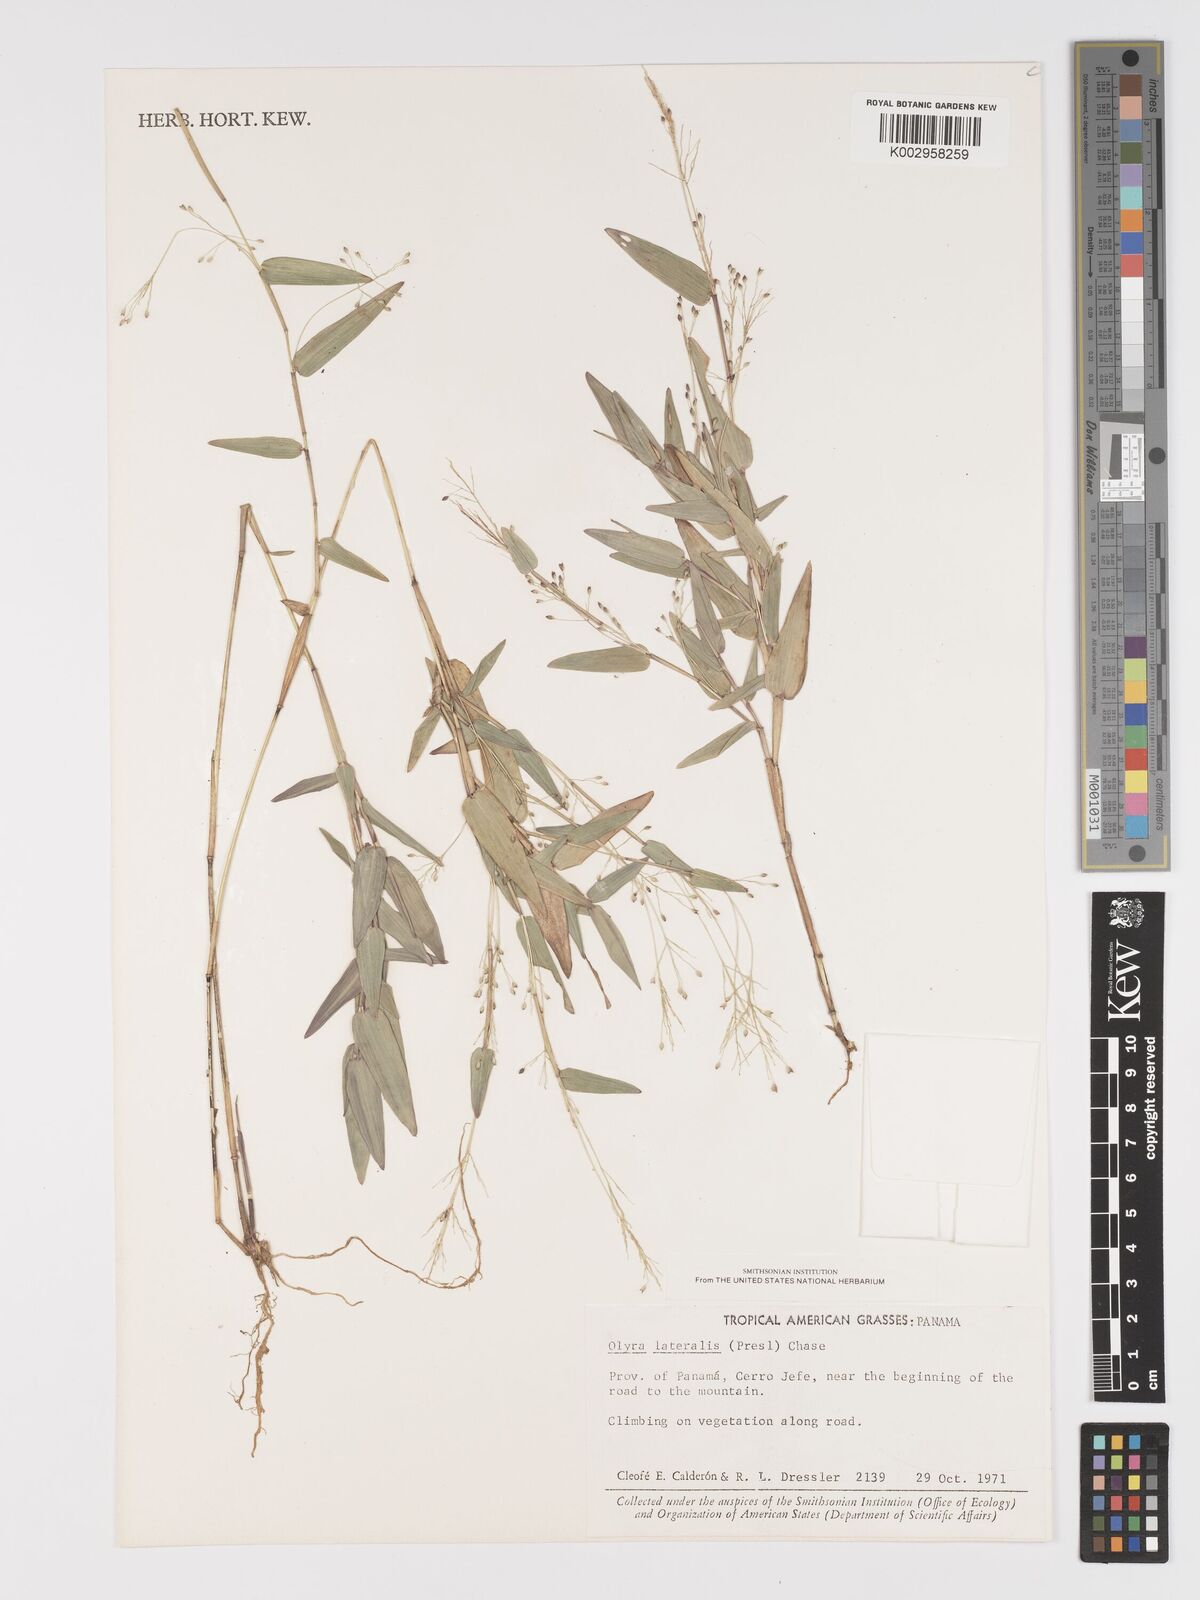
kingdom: Plantae
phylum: Tracheophyta
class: Liliopsida
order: Poales
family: Poaceae
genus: Parodiolyra
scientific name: Parodiolyra lateralis
